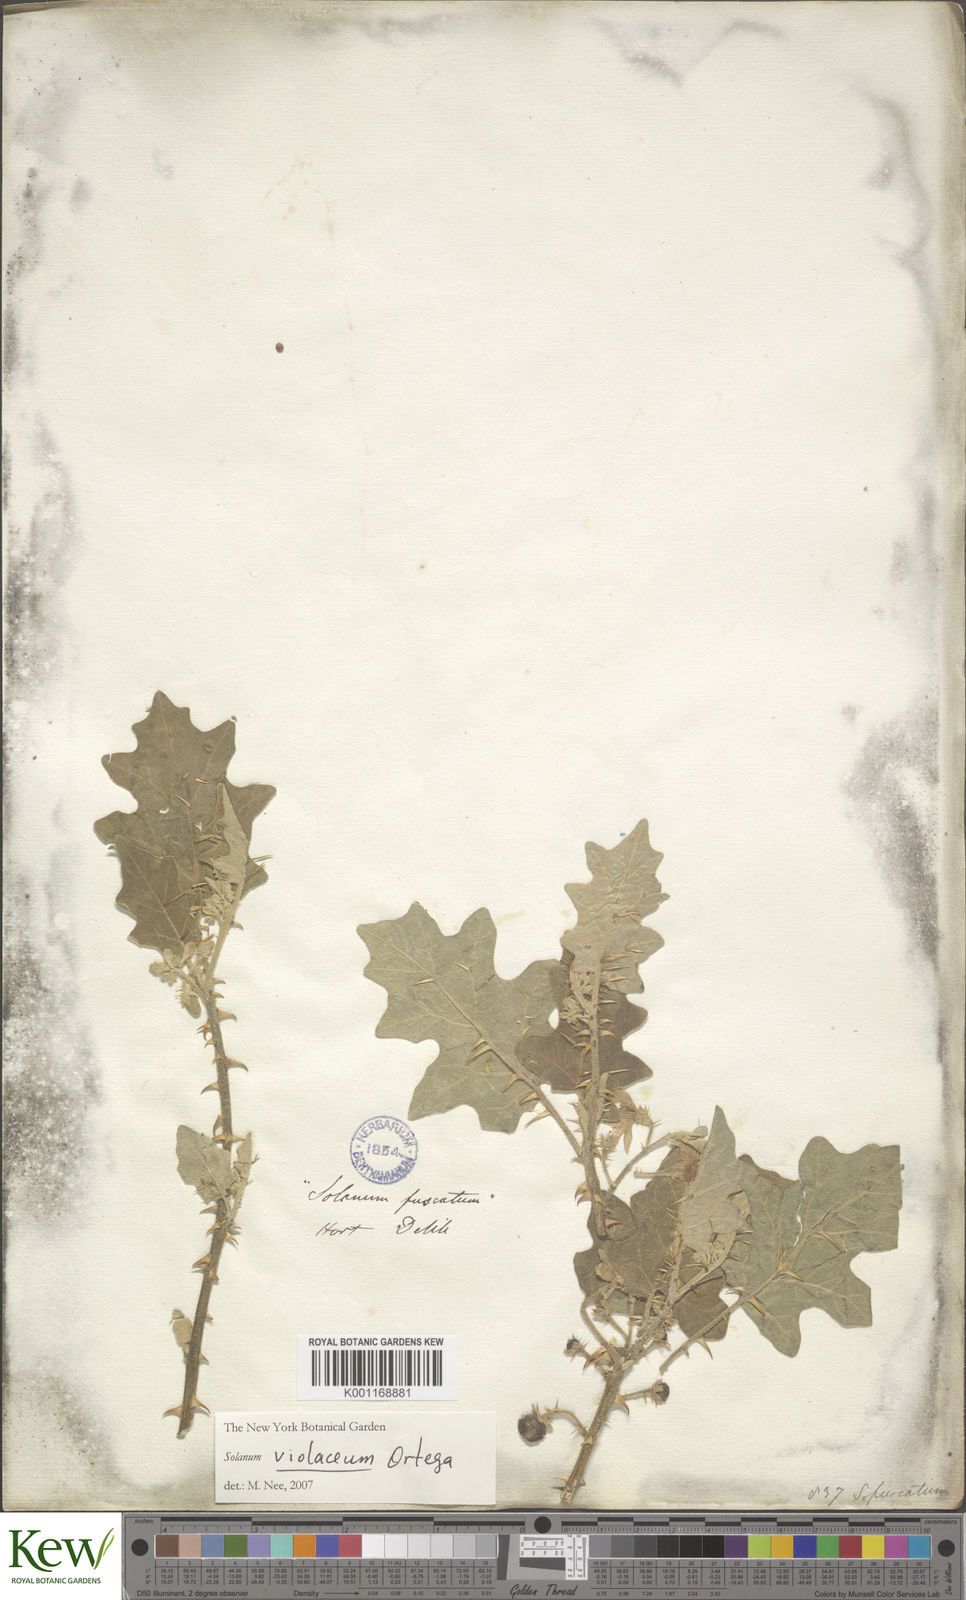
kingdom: Plantae
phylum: Tracheophyta
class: Magnoliopsida
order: Solanales
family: Solanaceae
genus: Solanum
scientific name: Solanum insanum
